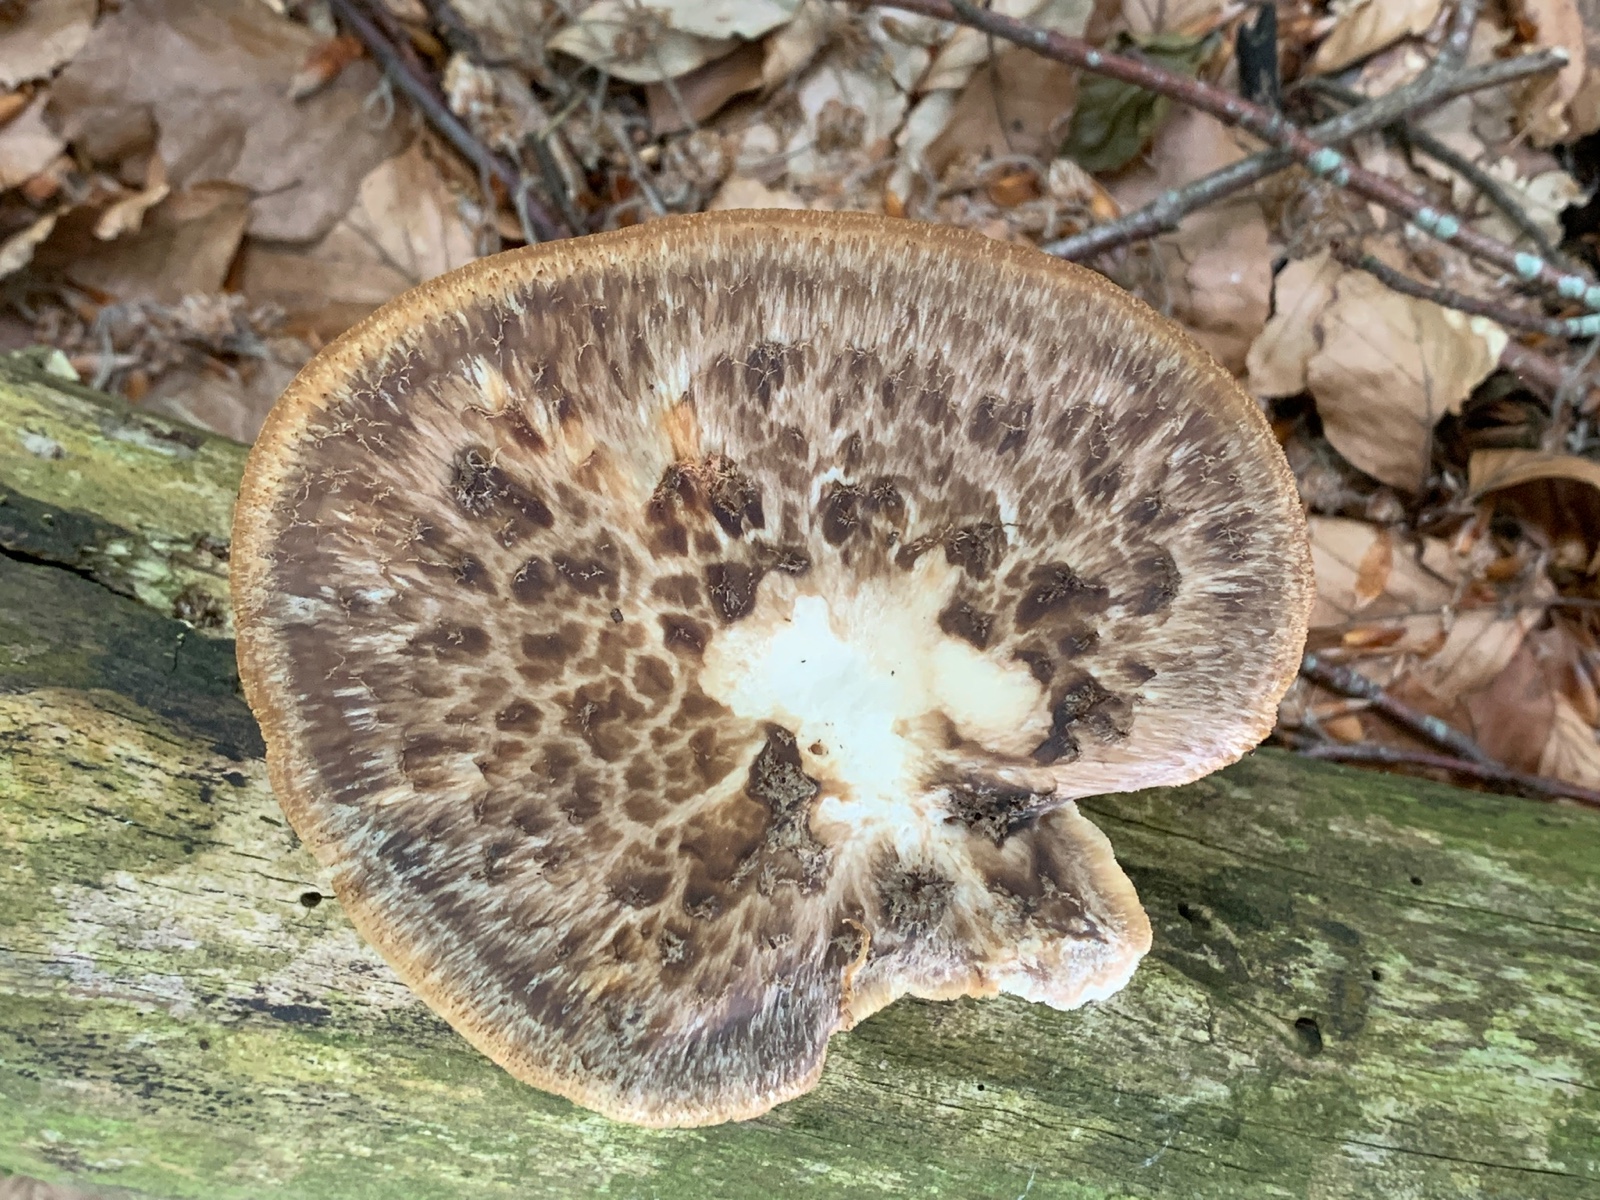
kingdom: Fungi
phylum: Basidiomycota
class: Agaricomycetes
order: Polyporales
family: Polyporaceae
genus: Polyporus
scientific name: Polyporus tuberaster
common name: knoldet stilkporesvamp
